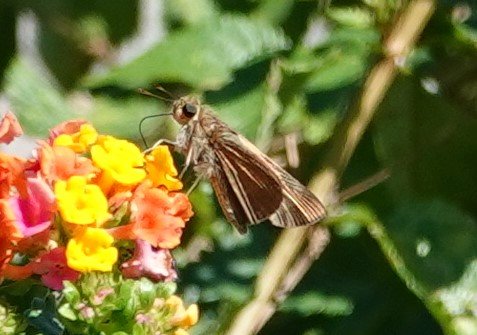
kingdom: Animalia
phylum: Arthropoda
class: Insecta
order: Lepidoptera
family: Hesperiidae
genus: Panoquina
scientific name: Panoquina ocola
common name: Ocola Skipper
